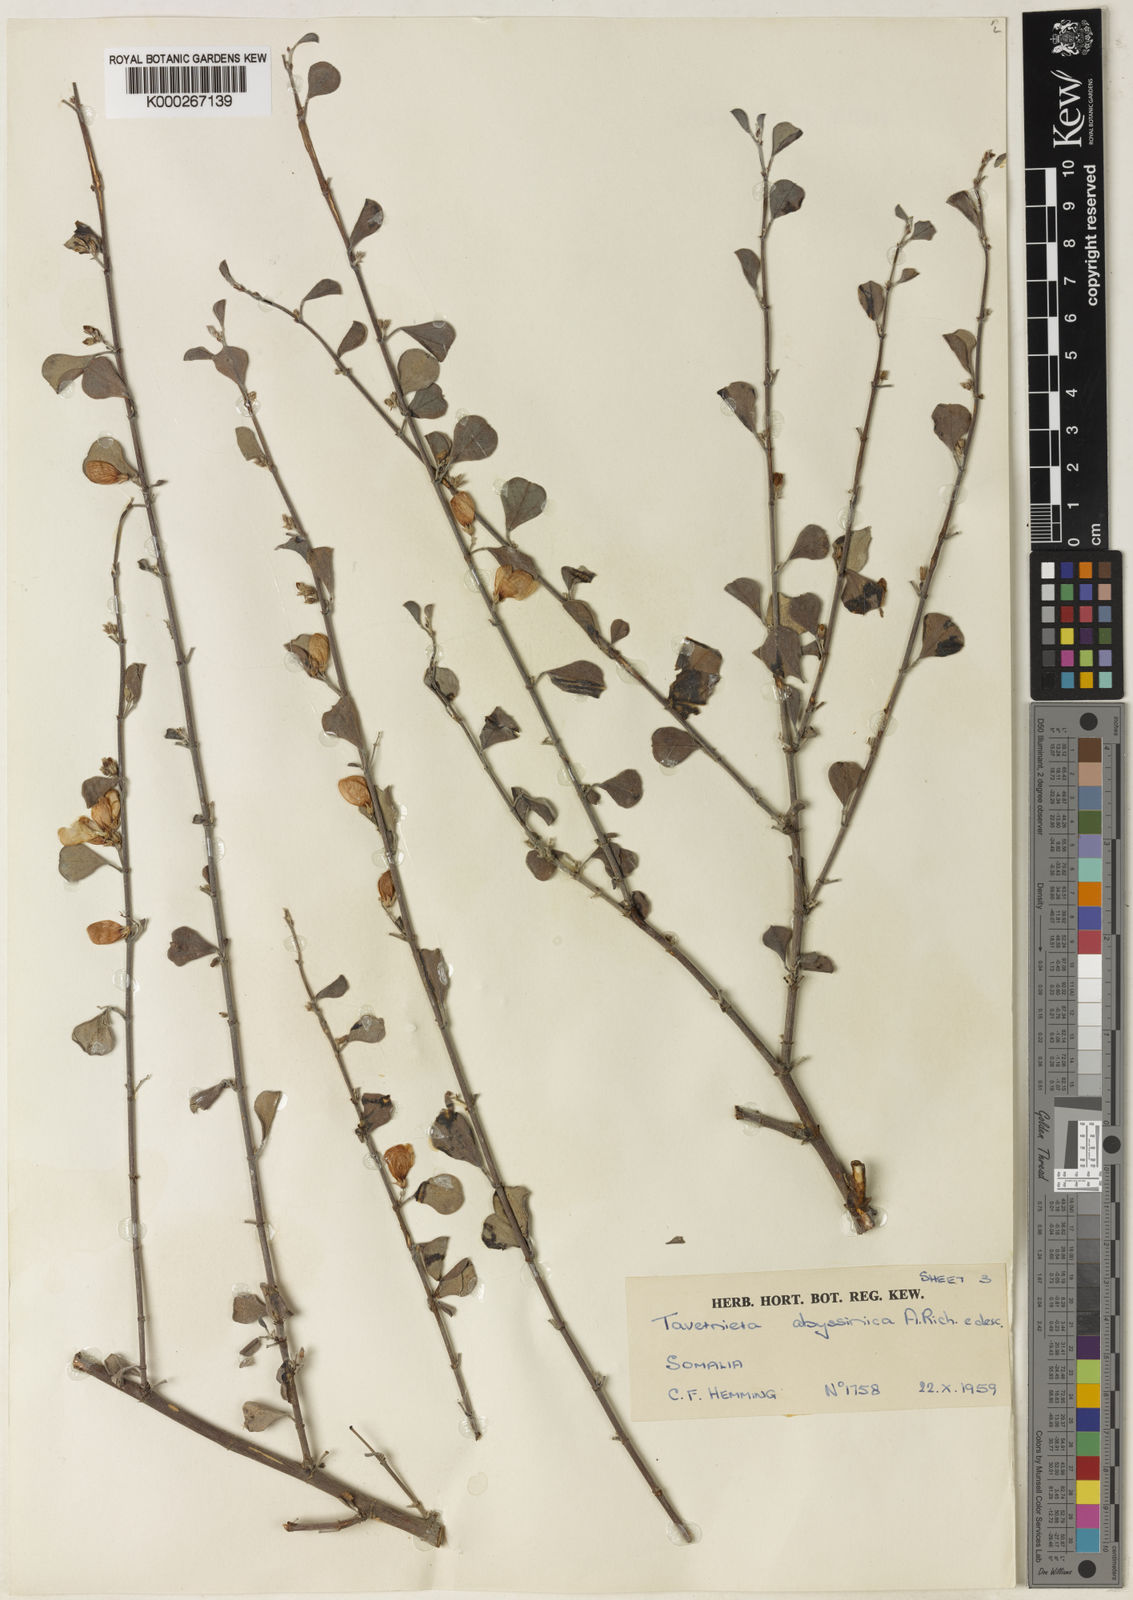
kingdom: Plantae
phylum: Tracheophyta
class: Magnoliopsida
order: Fabales
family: Fabaceae
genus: Taverniera
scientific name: Taverniera multinoda
